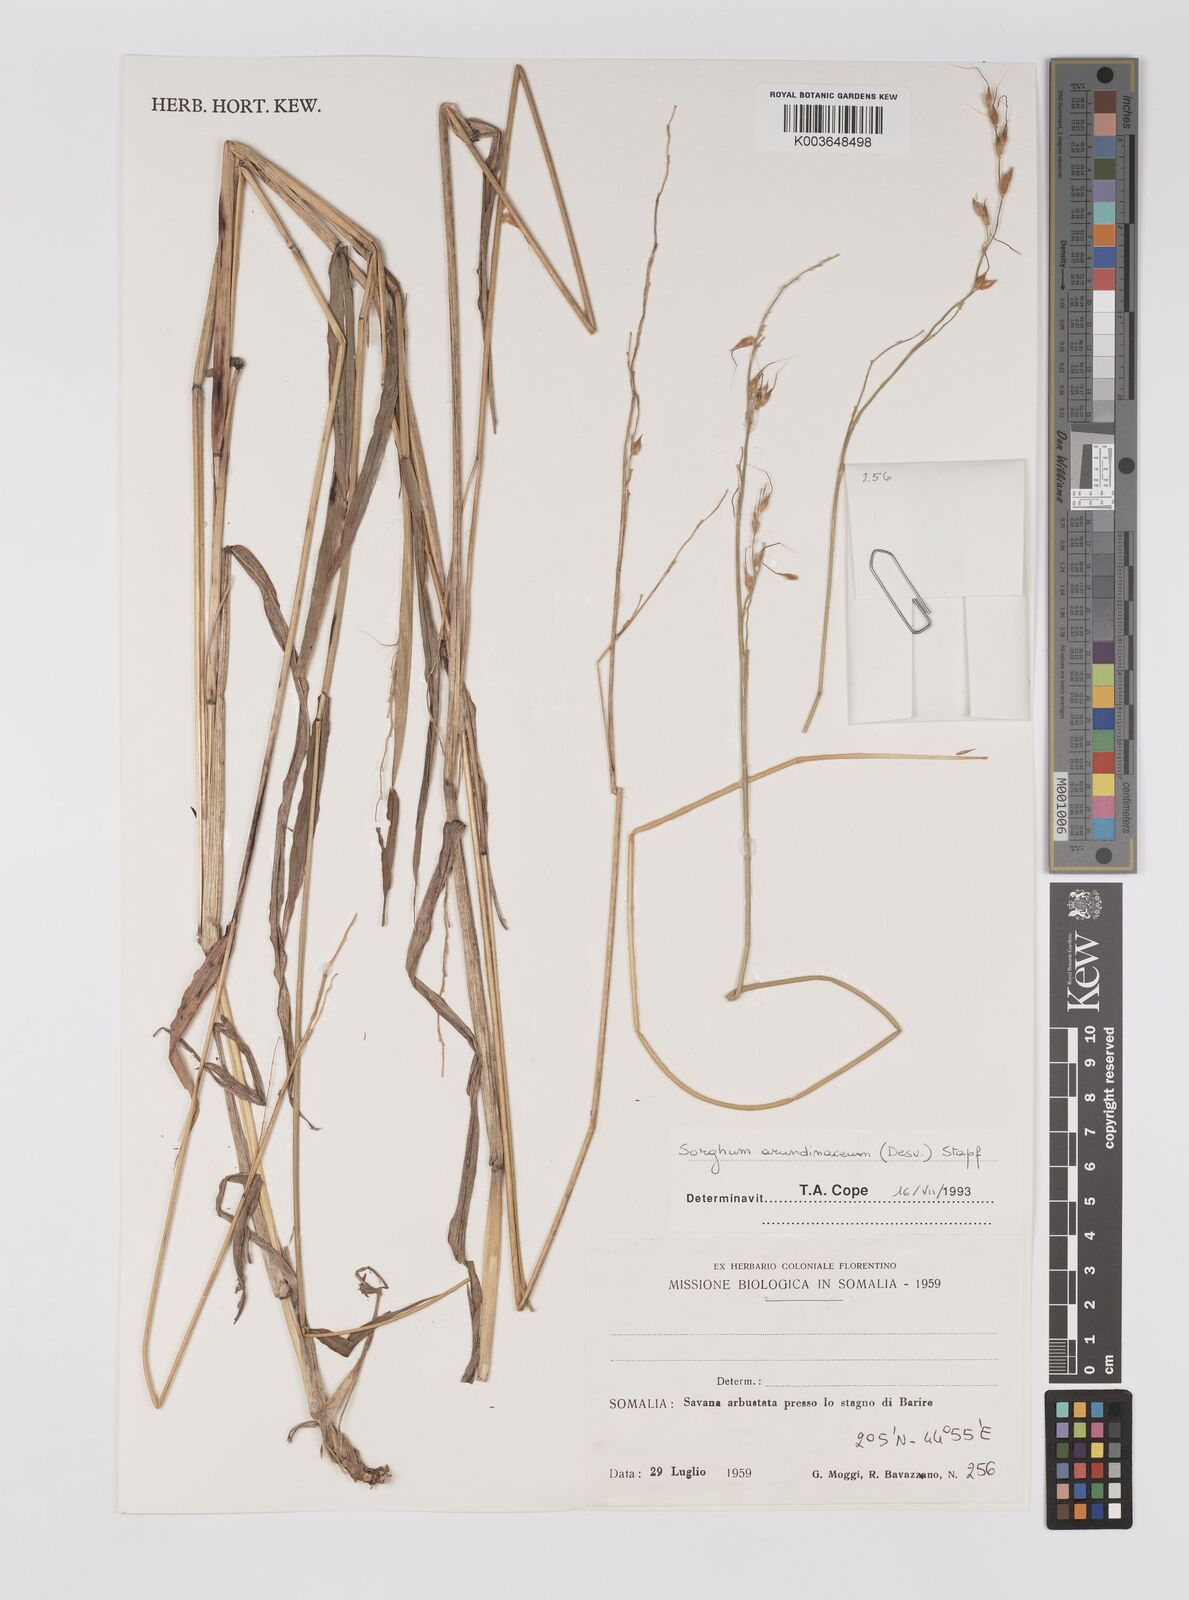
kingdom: Plantae
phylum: Tracheophyta
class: Liliopsida
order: Poales
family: Poaceae
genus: Sorghum
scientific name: Sorghum arundinaceum
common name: Sorghum
